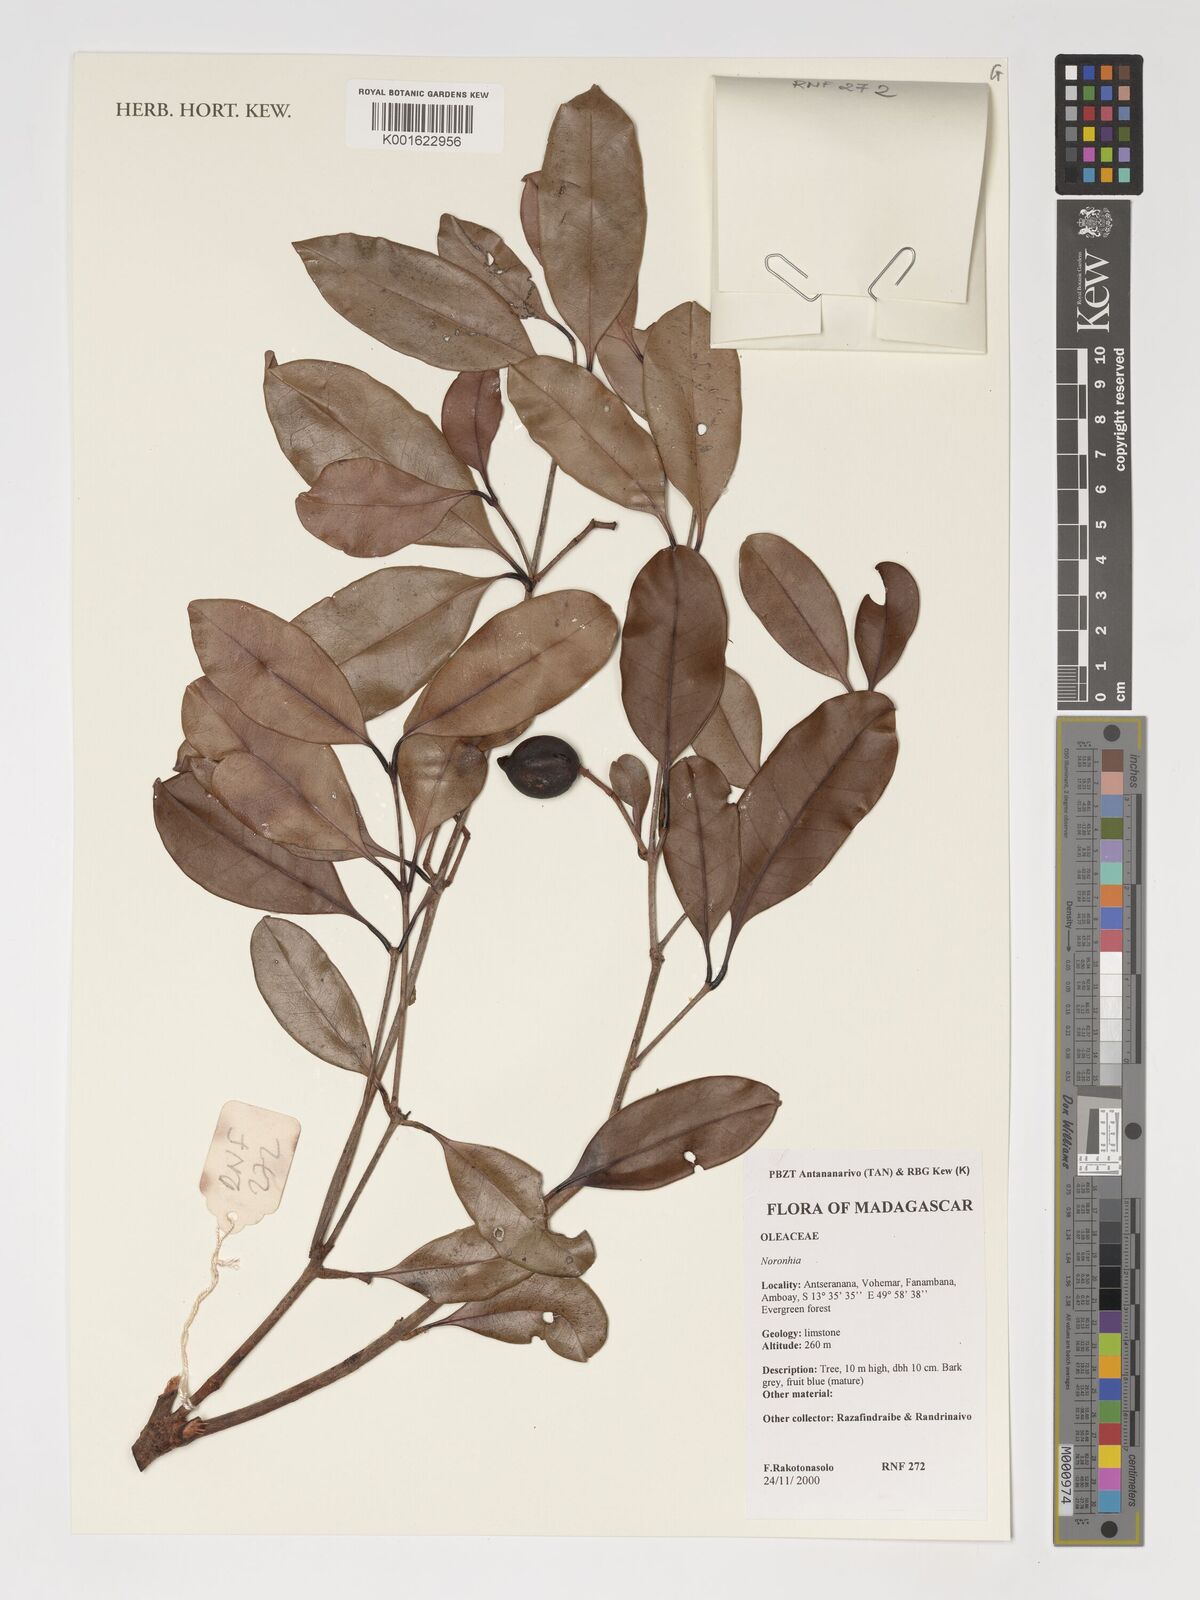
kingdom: Plantae
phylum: Tracheophyta
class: Magnoliopsida
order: Lamiales
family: Oleaceae
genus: Noronhia
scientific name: Noronhia
